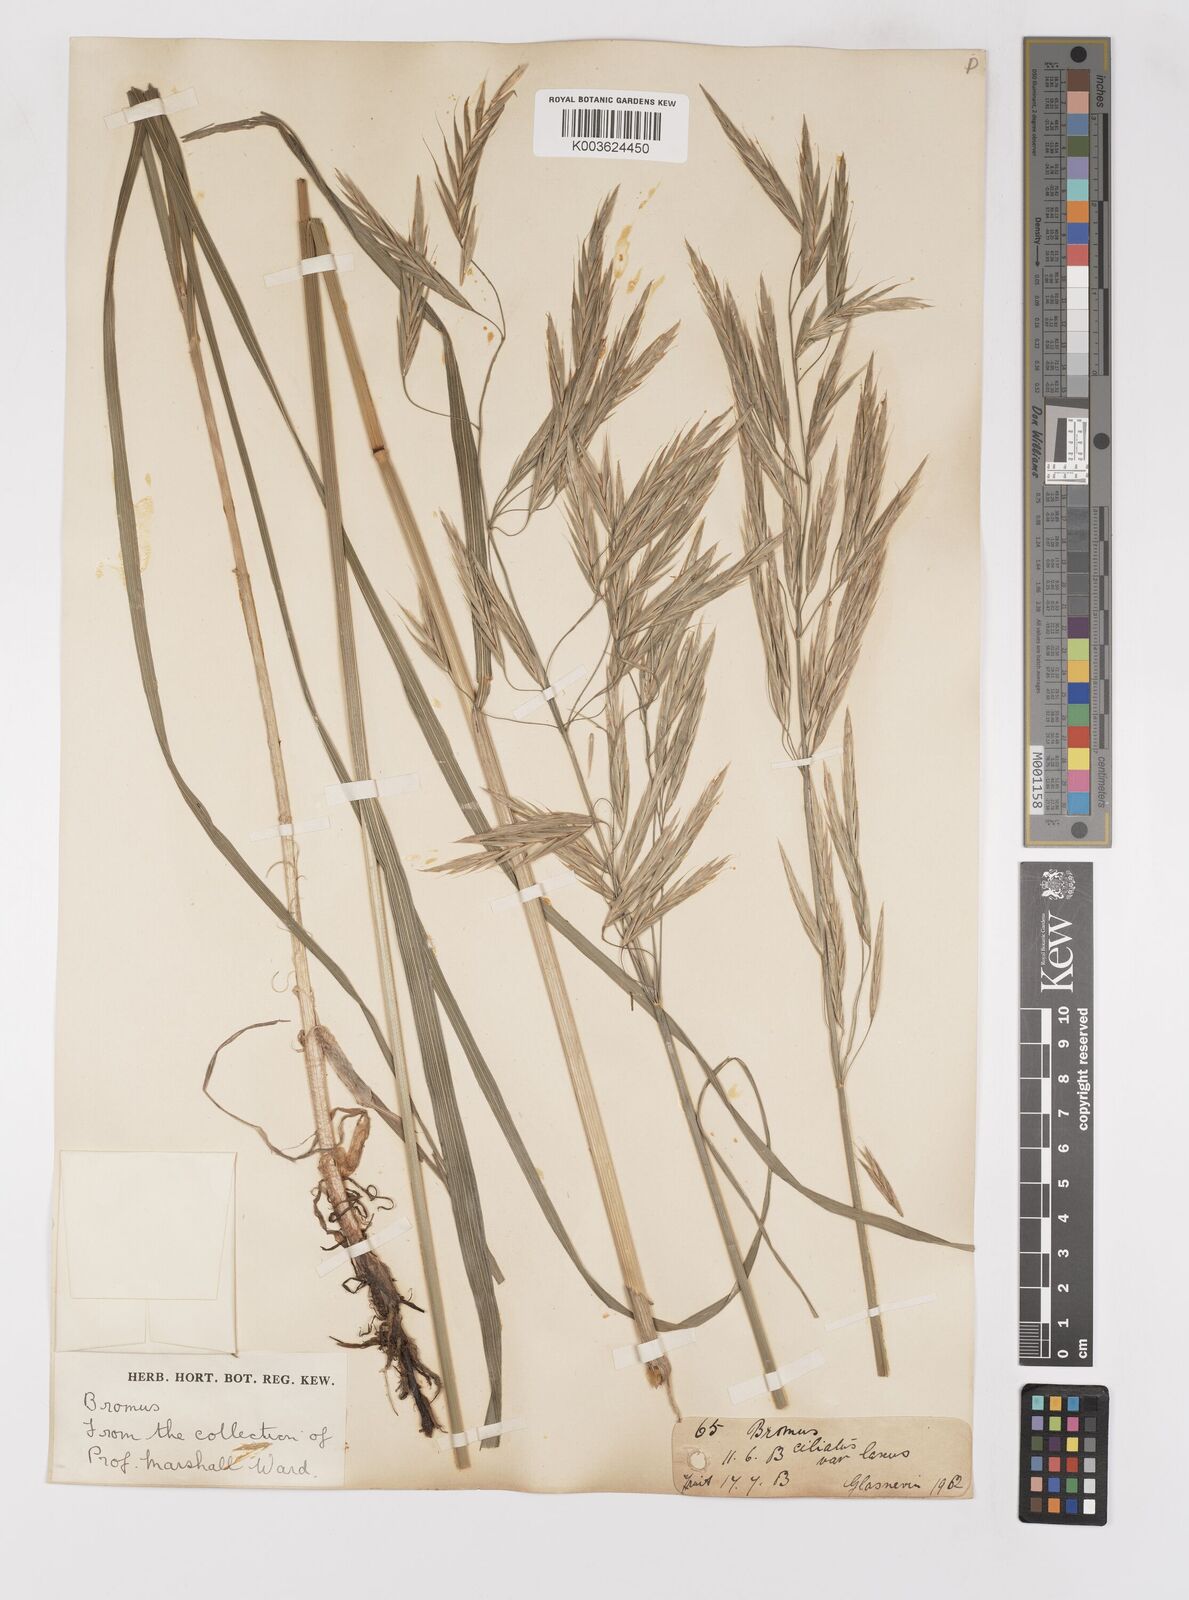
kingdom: Plantae
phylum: Tracheophyta
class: Liliopsida
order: Poales
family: Poaceae
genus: Bromus
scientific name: Bromus
